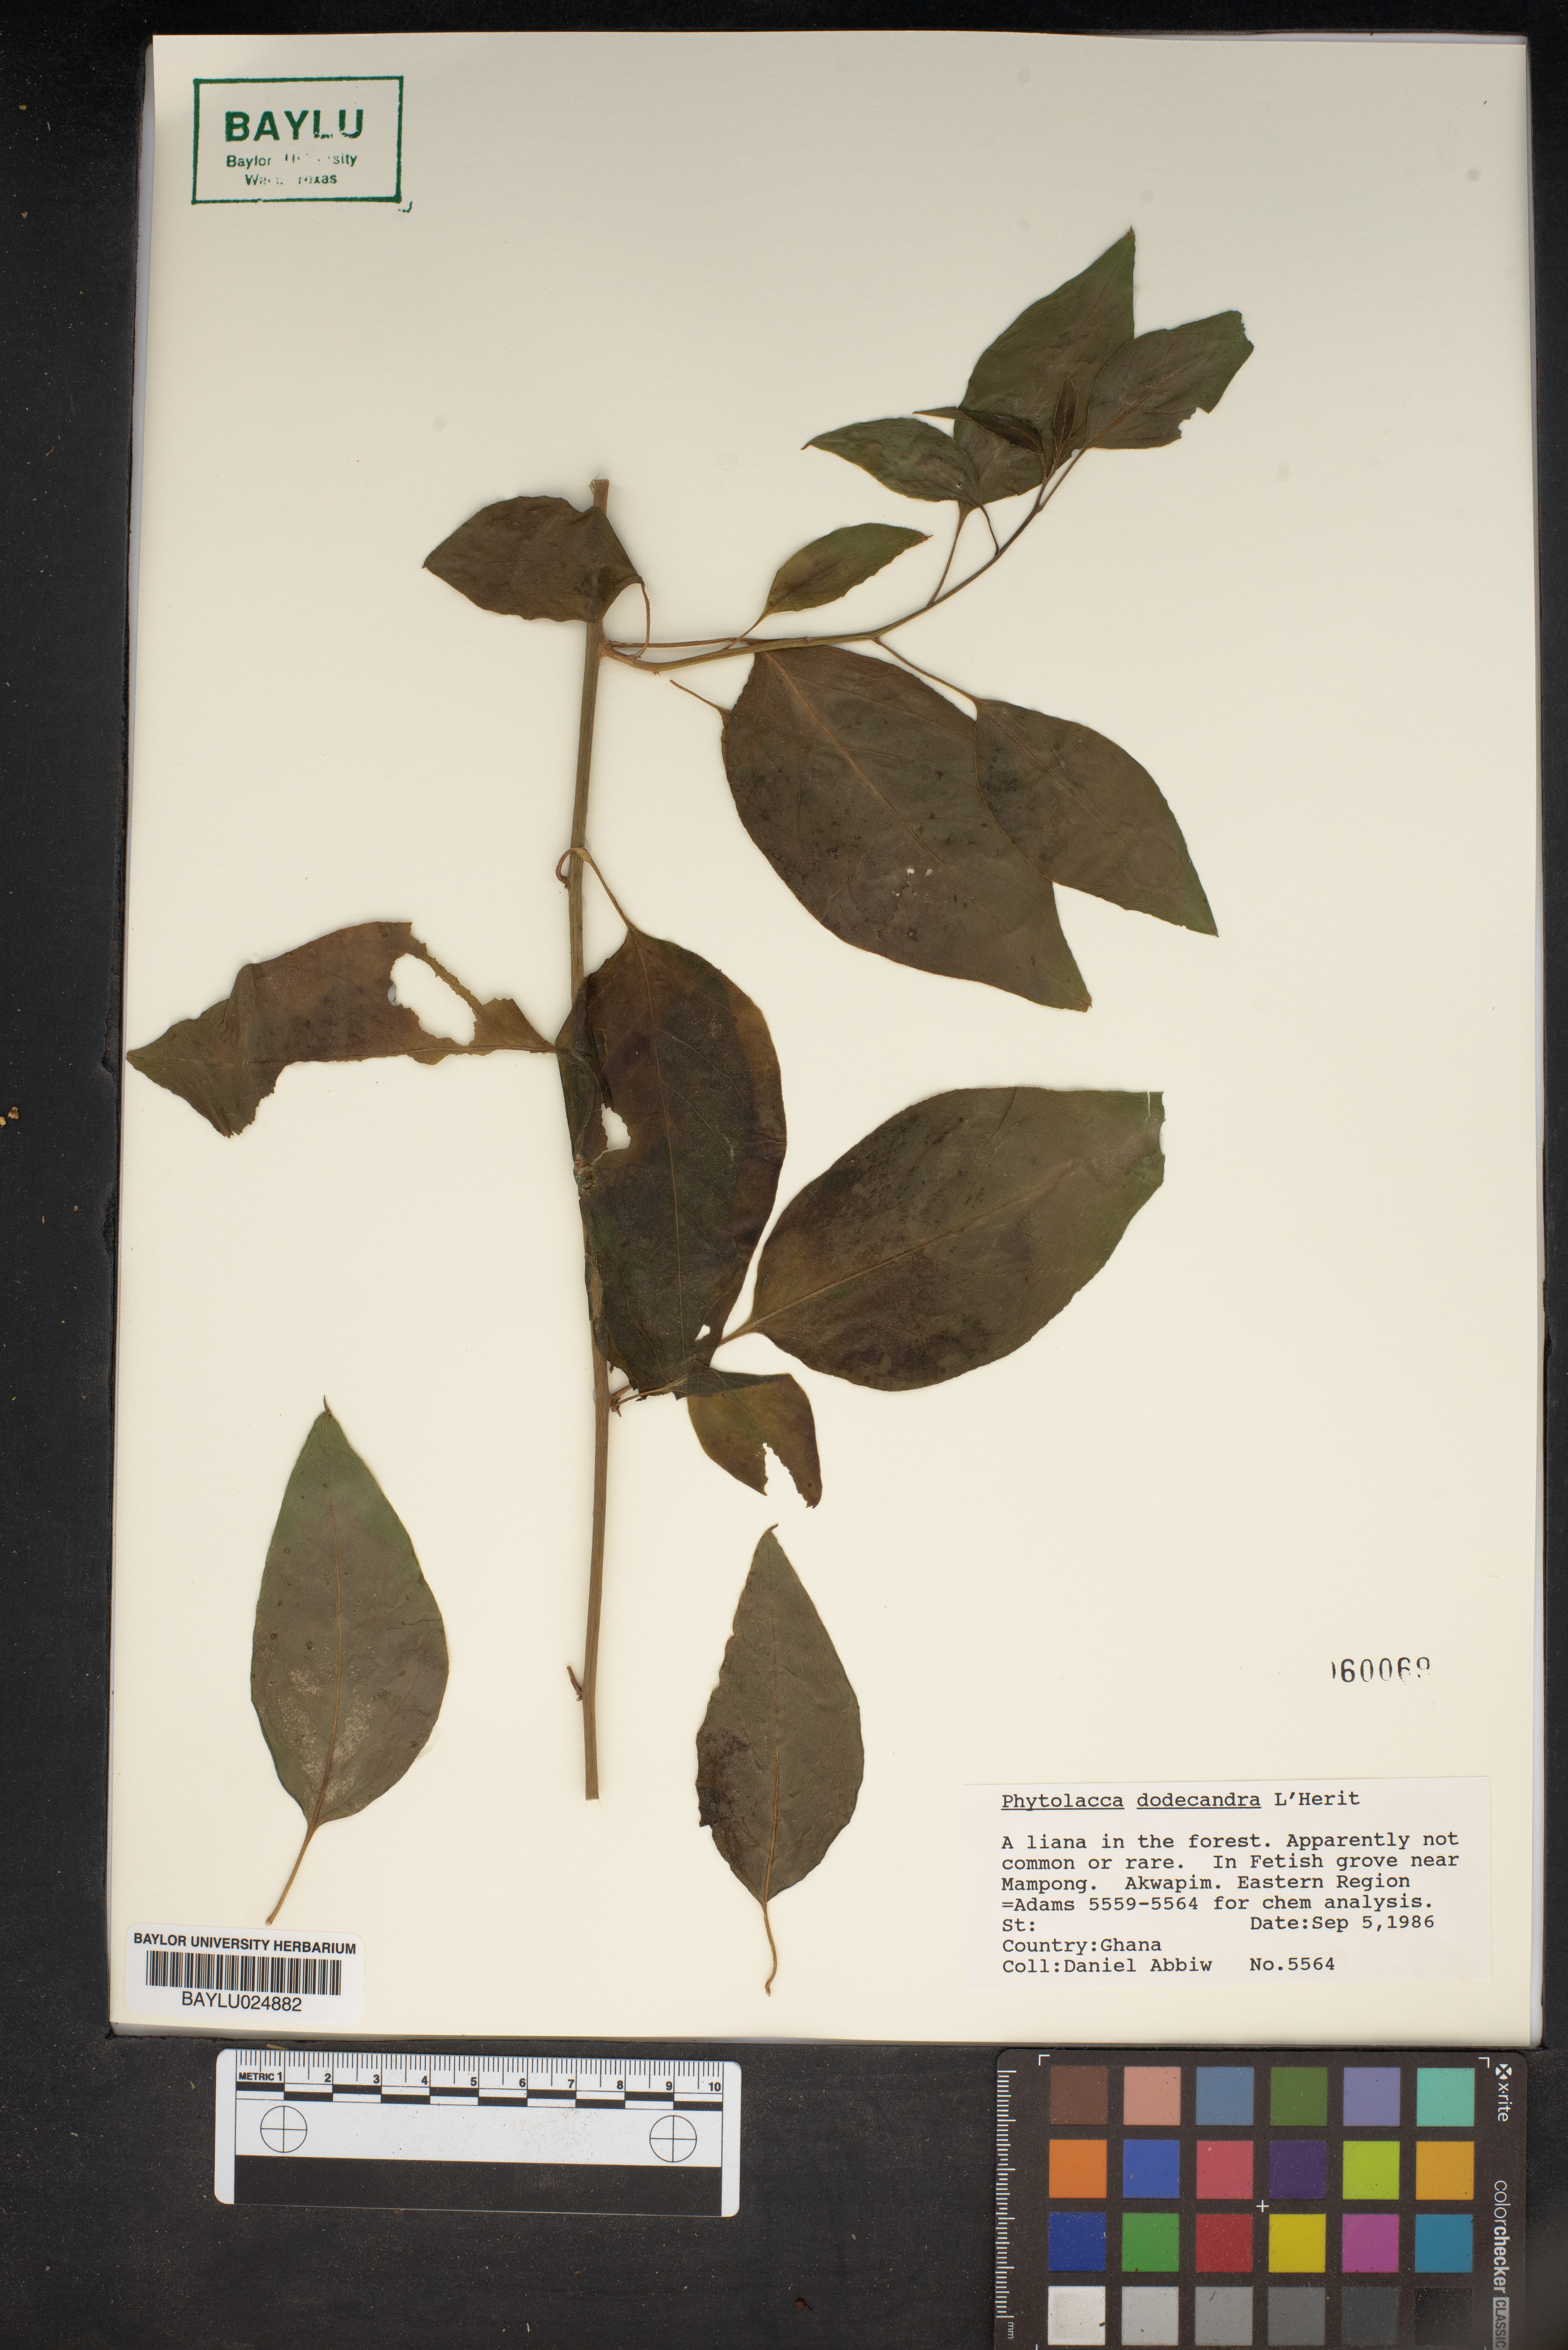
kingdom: Plantae
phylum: Tracheophyta
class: Magnoliopsida
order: Caryophyllales
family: Phytolaccaceae
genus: Phytolacca
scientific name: Phytolacca dodecandra
